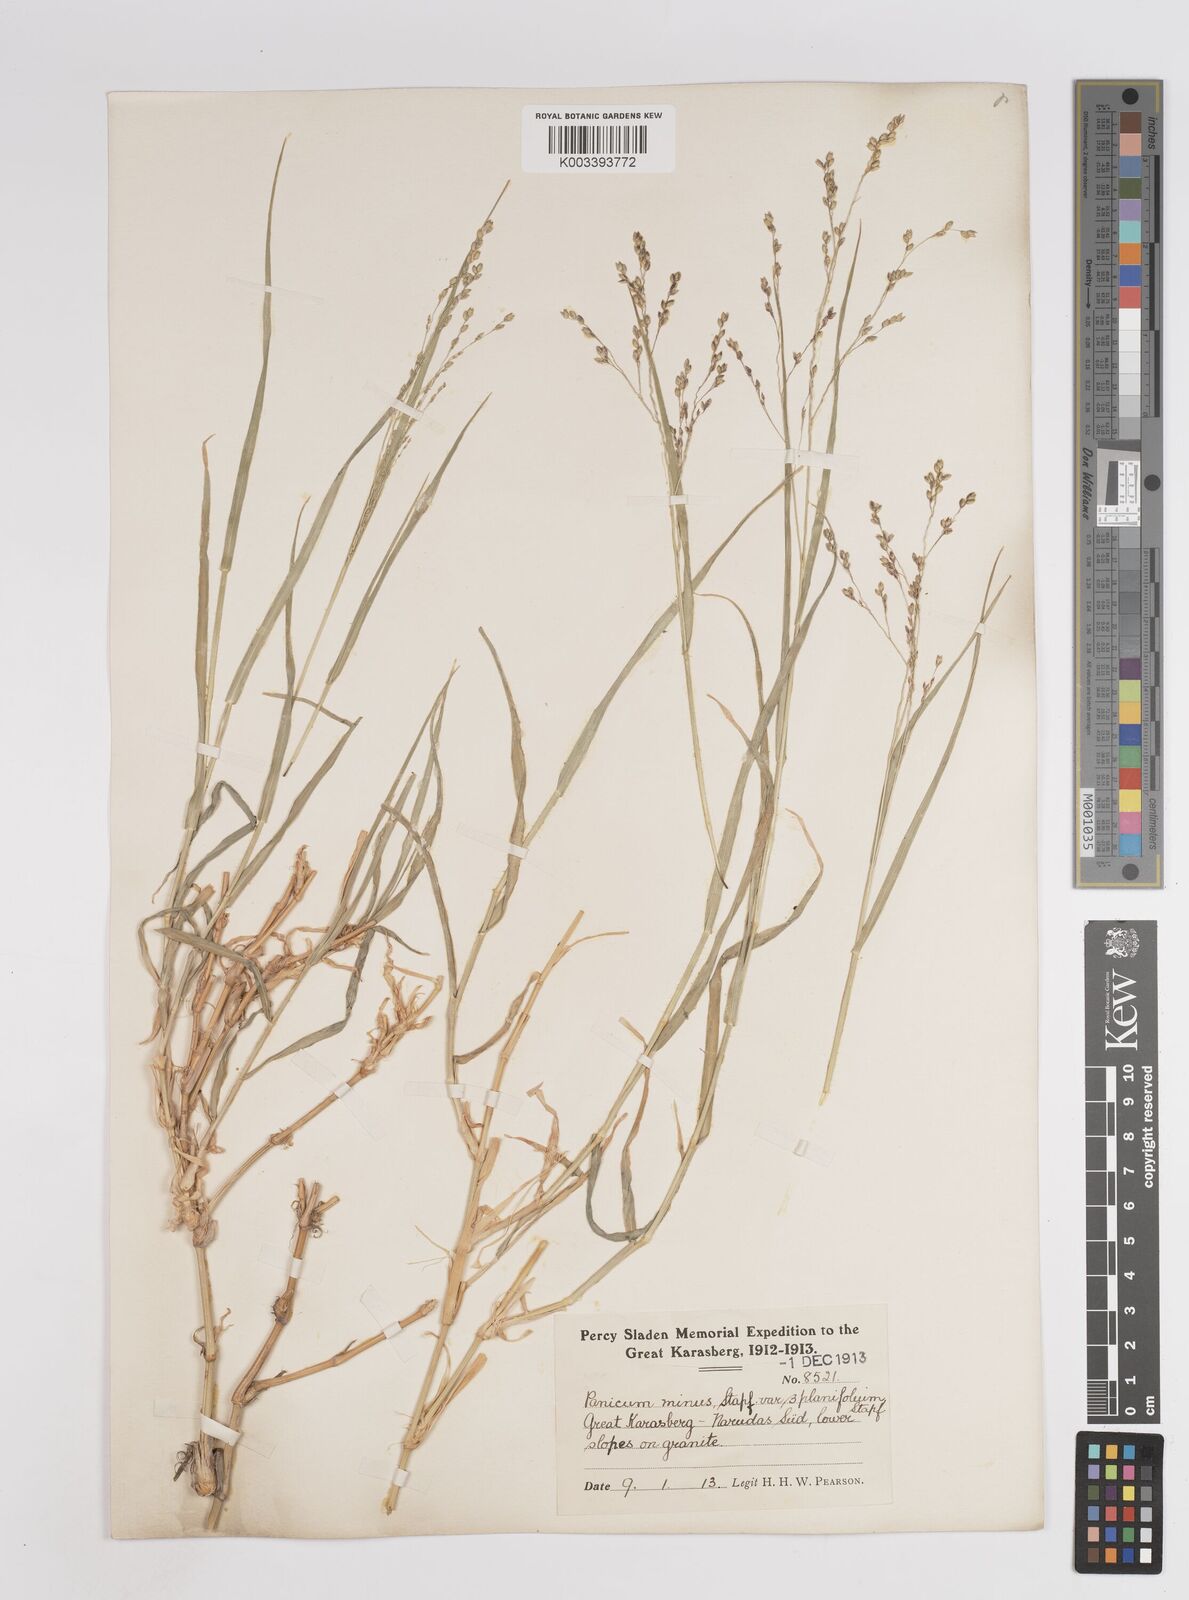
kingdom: Plantae
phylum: Tracheophyta
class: Liliopsida
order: Poales
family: Poaceae
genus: Panicum
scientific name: Panicum arbusculum
